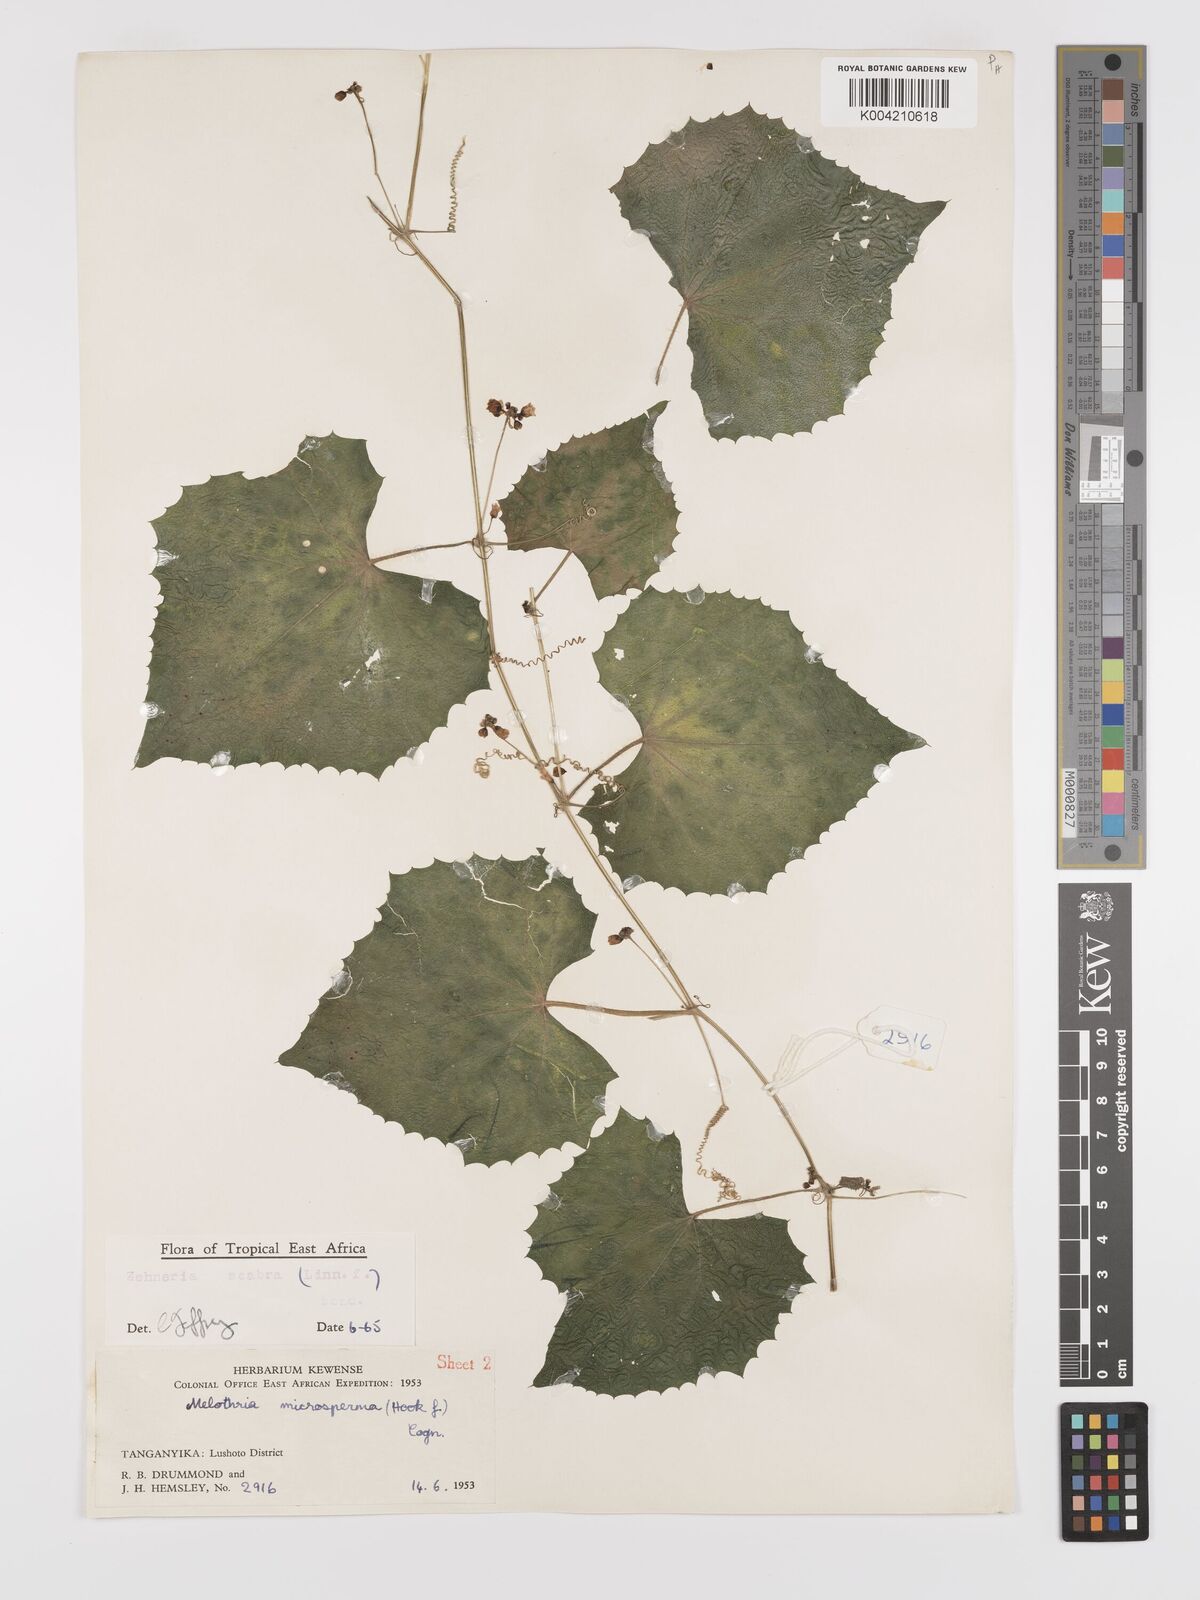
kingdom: Plantae
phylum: Tracheophyta
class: Magnoliopsida
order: Cucurbitales
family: Cucurbitaceae
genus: Zehneria
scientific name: Zehneria scabra
